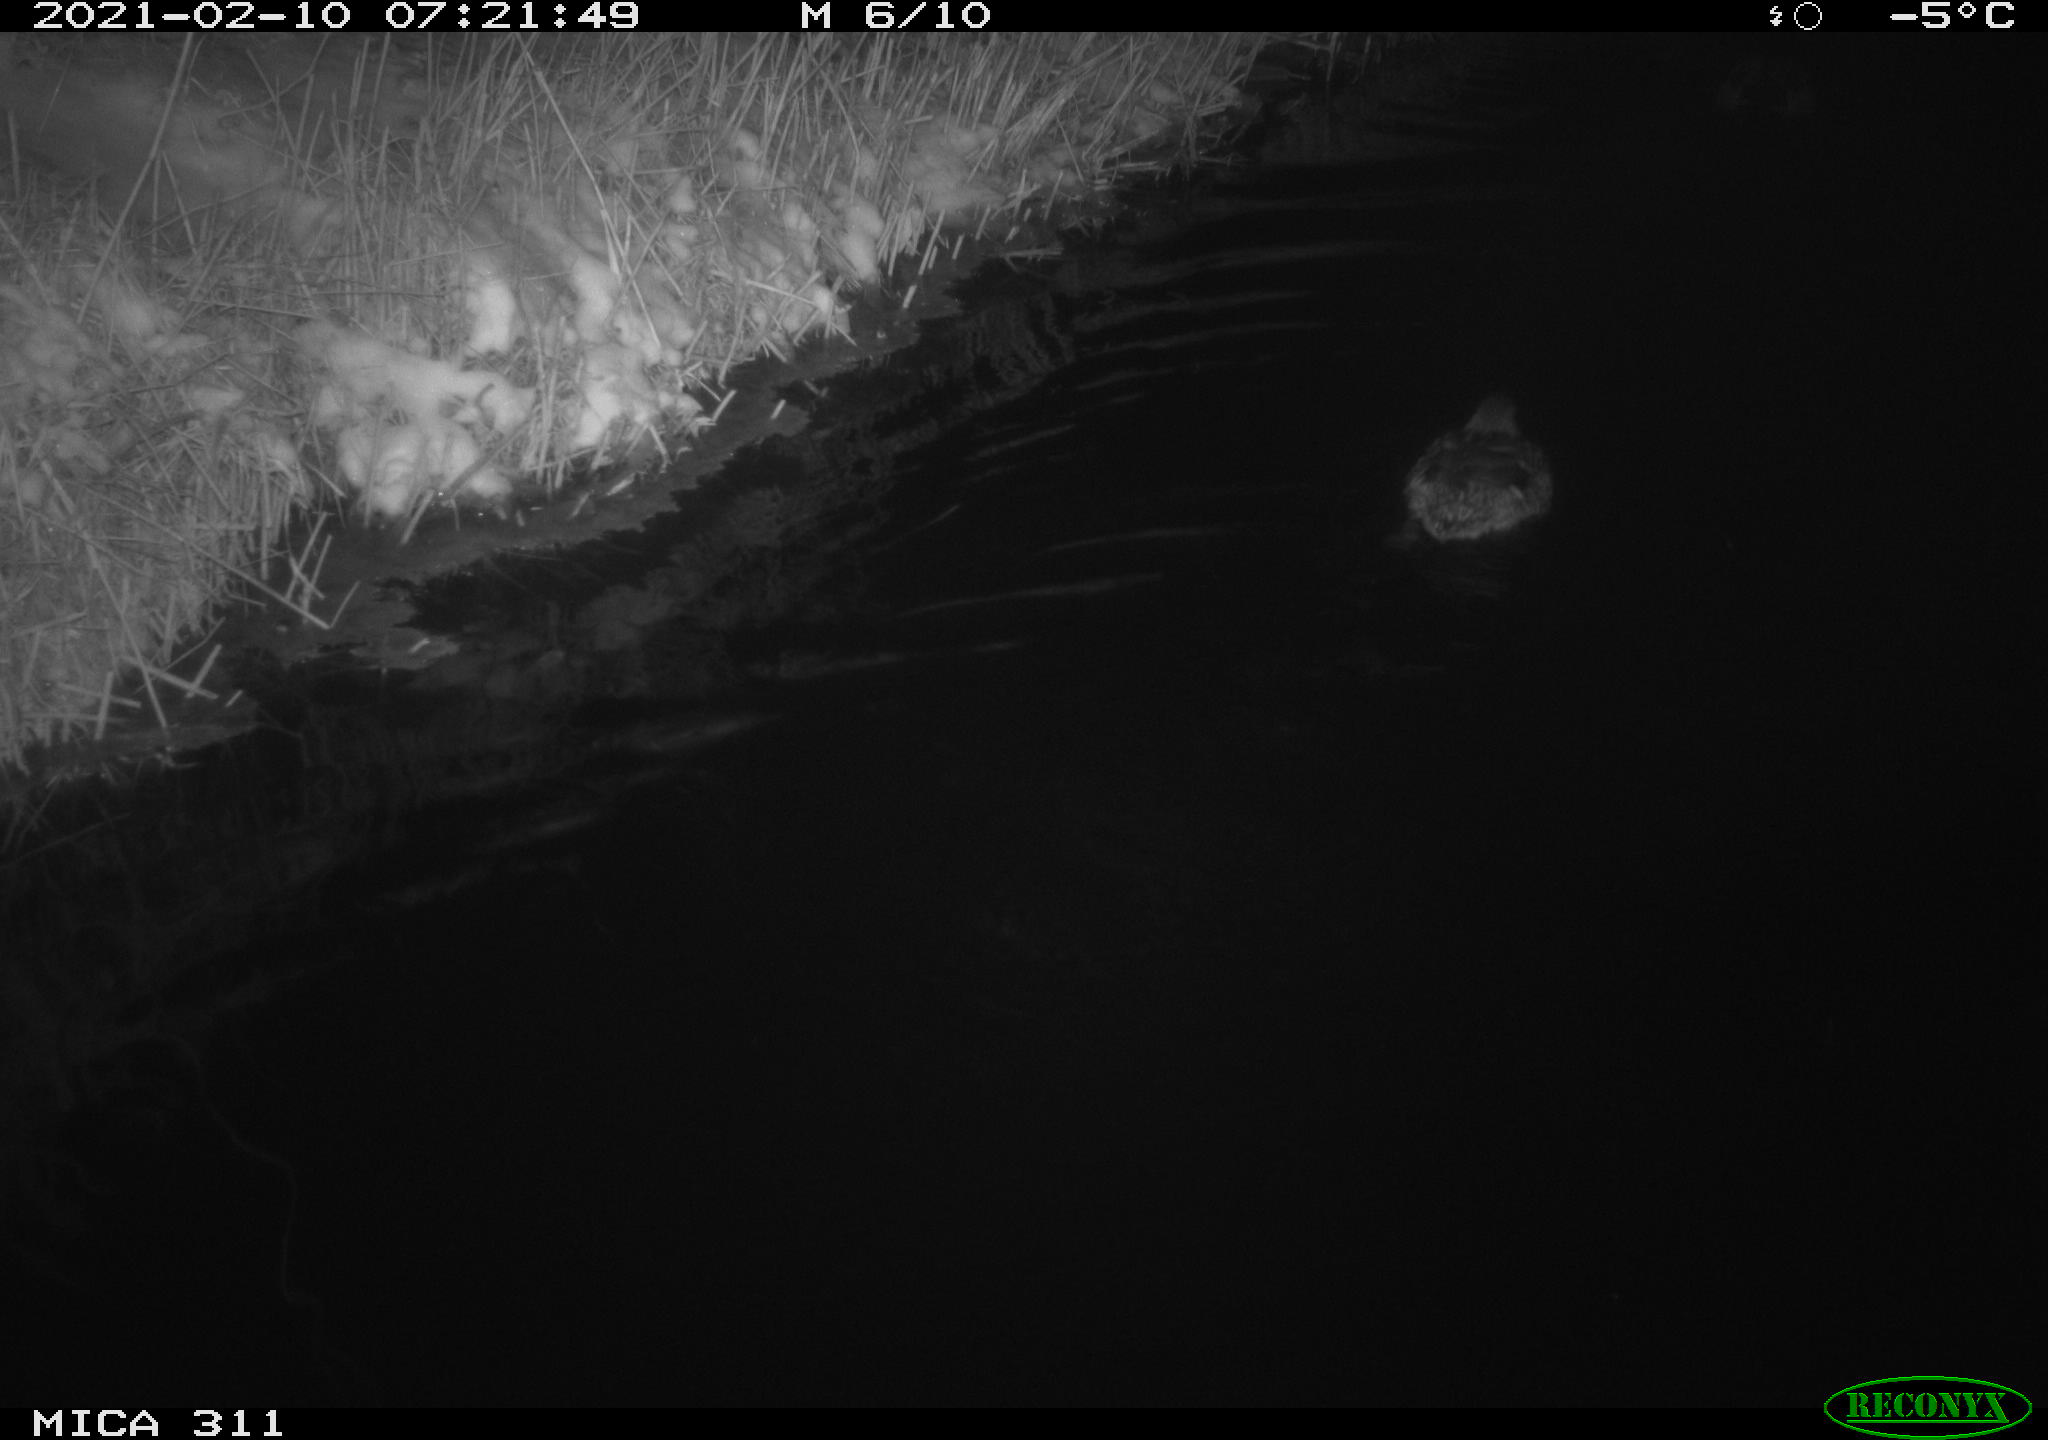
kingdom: Animalia
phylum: Chordata
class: Aves
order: Anseriformes
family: Anatidae
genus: Anas
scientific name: Anas
